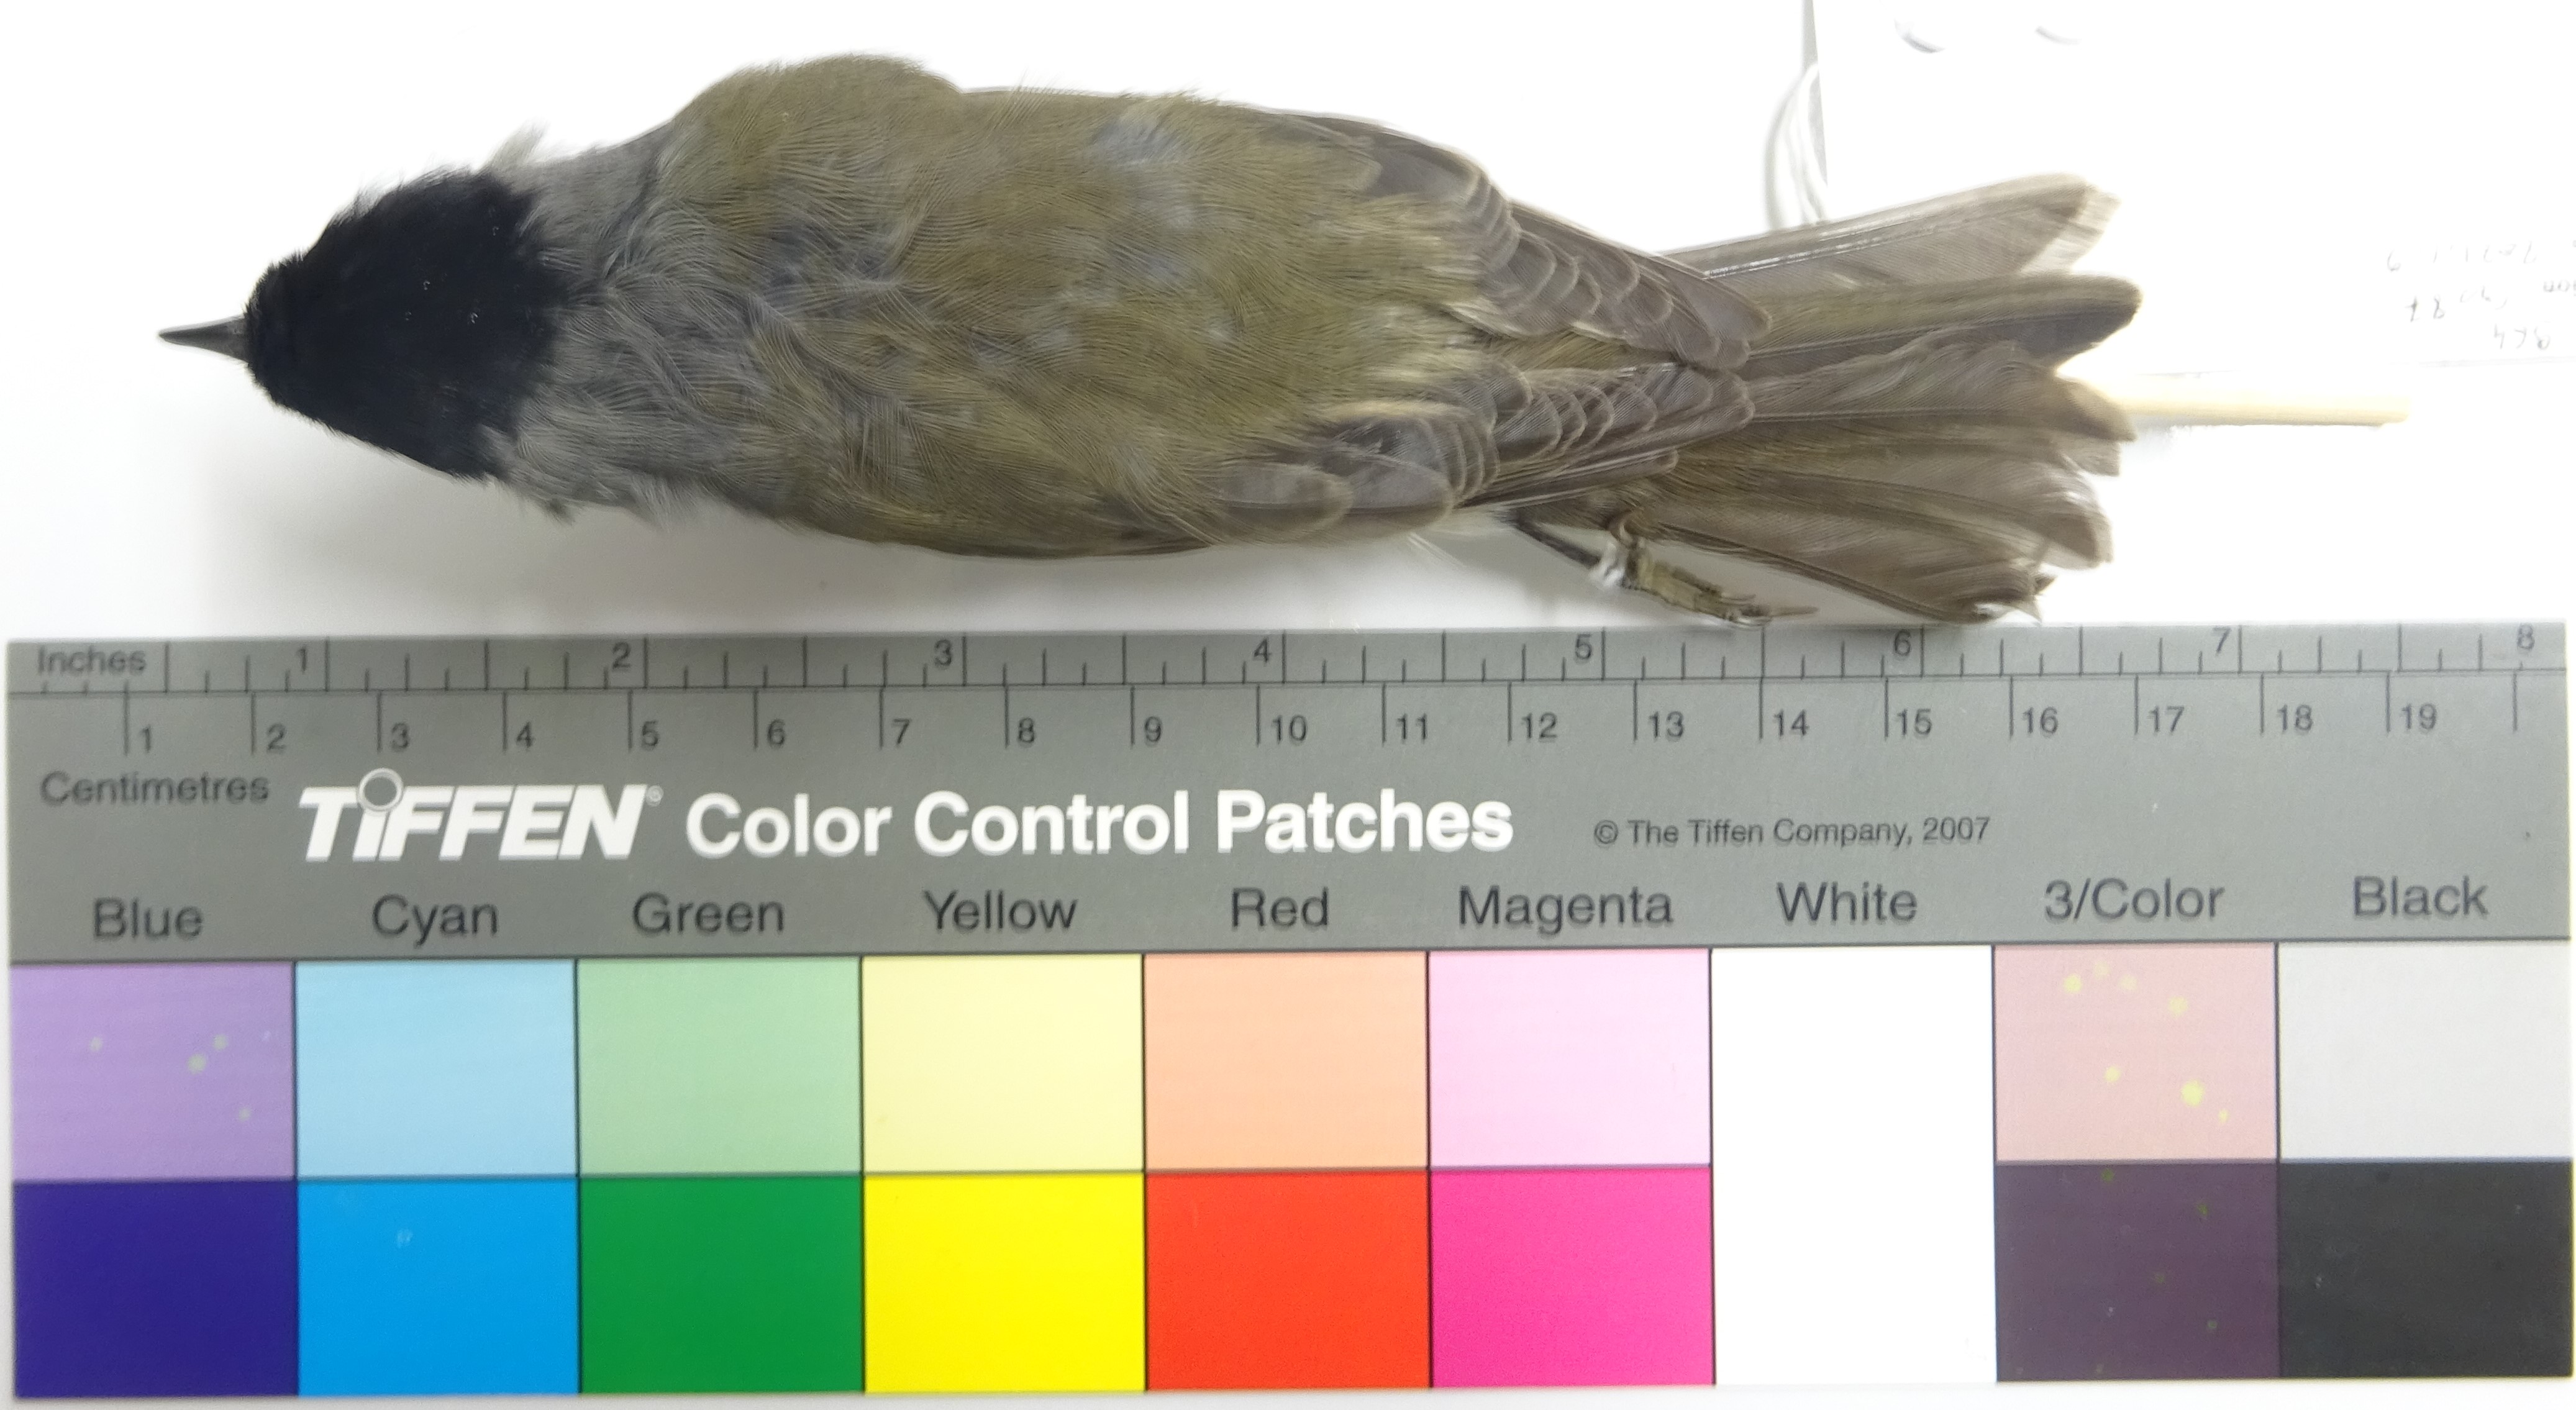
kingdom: Animalia
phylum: Chordata
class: Aves
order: Passeriformes
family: Sylviidae
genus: Sylvia
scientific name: Sylvia atricapilla
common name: Eurasian blackcap
